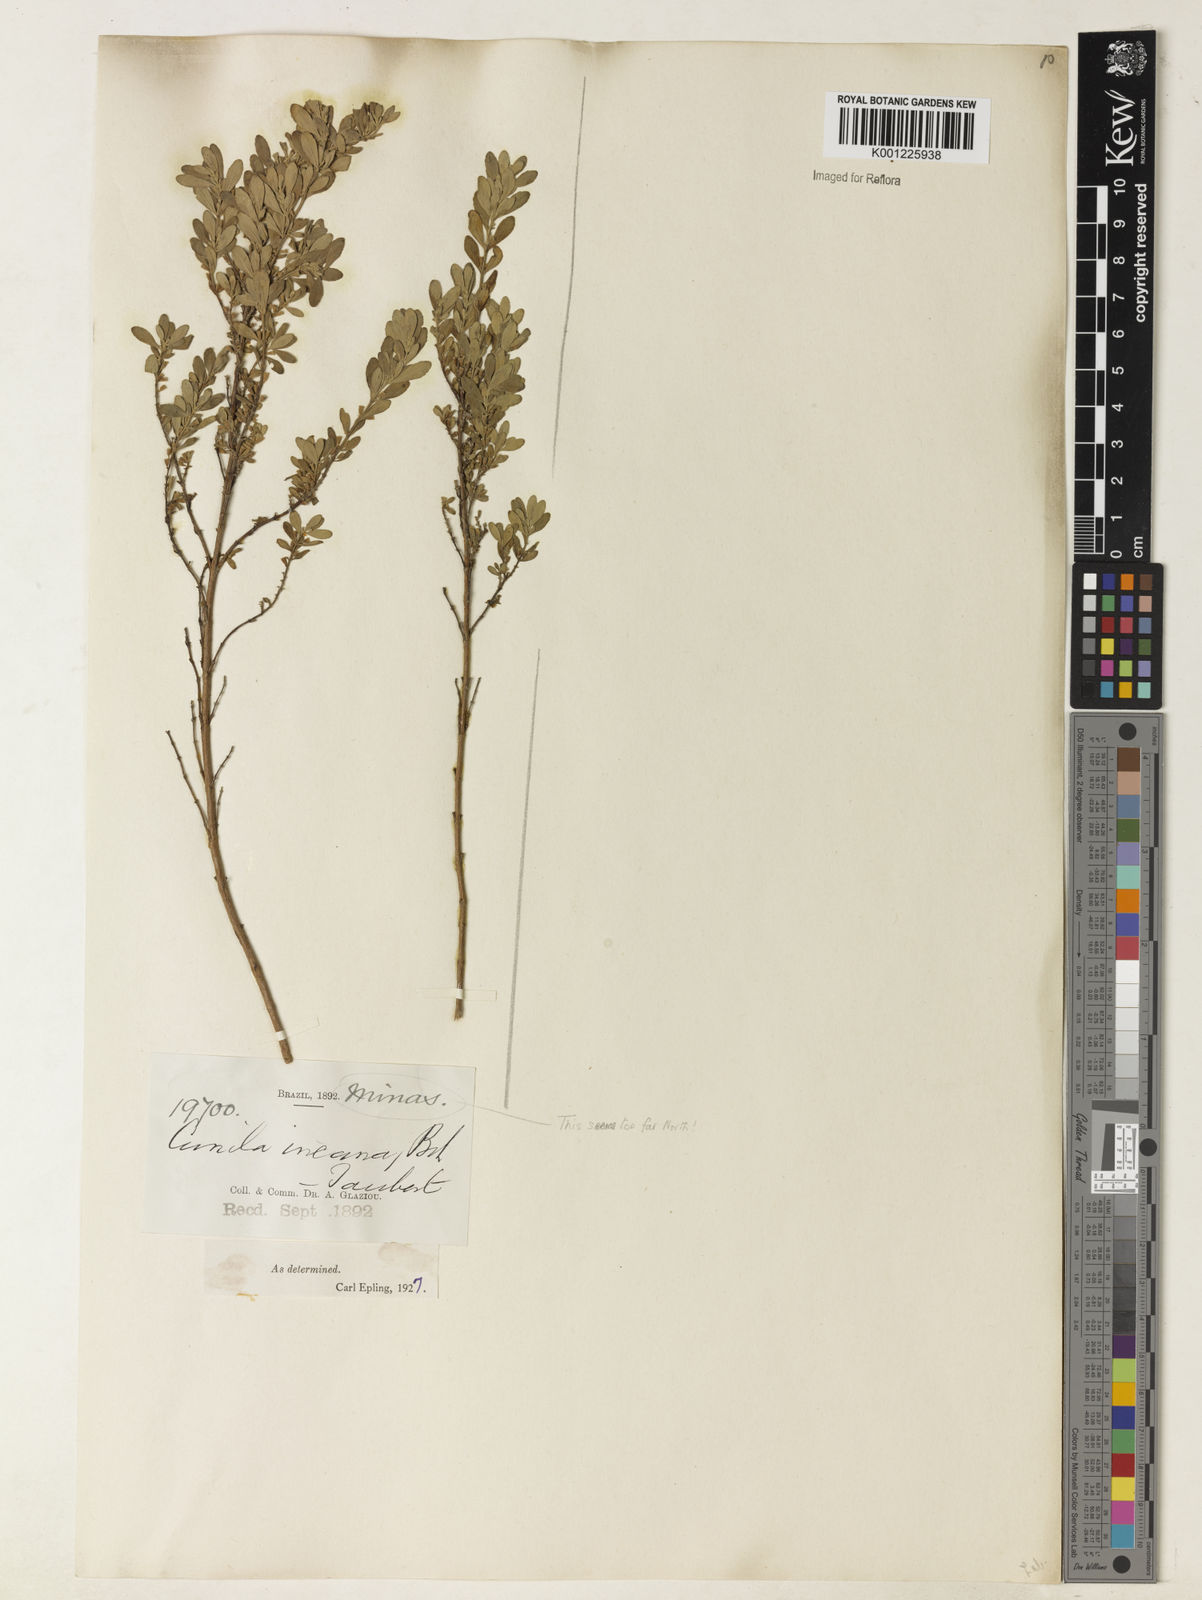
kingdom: Plantae
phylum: Tracheophyta
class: Magnoliopsida
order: Lamiales
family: Lamiaceae
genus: Cunila
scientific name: Cunila incana
